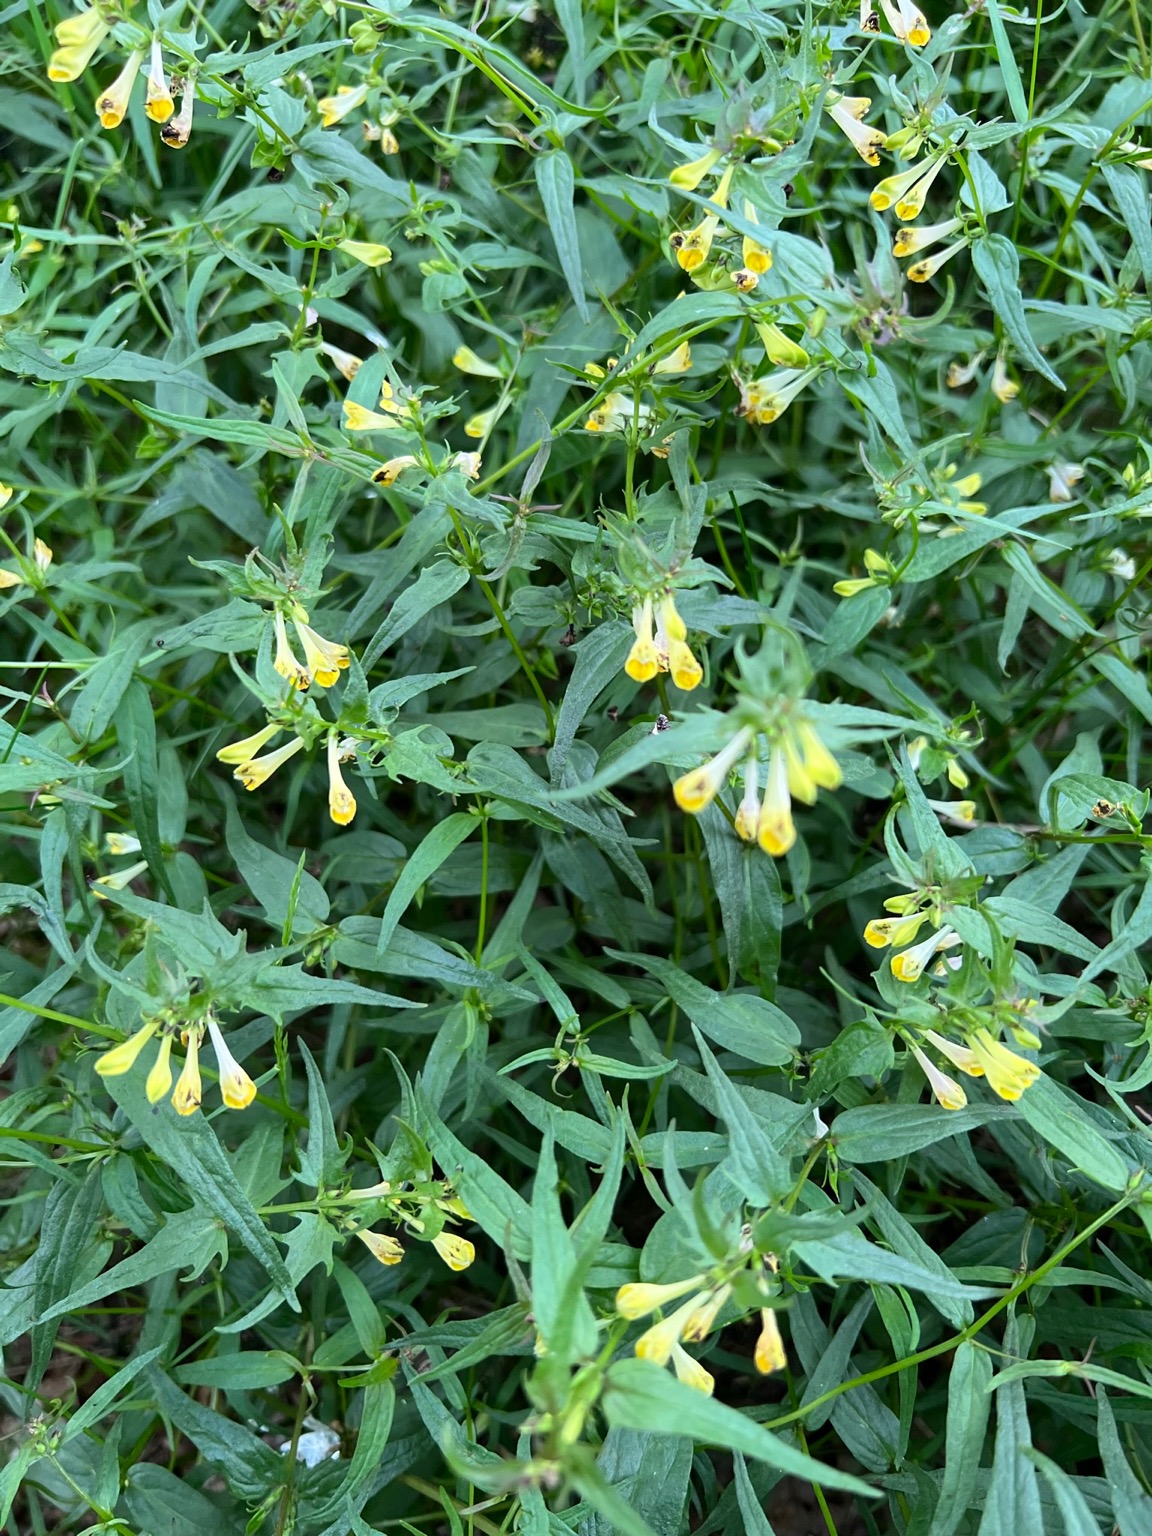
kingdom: Plantae
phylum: Tracheophyta
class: Magnoliopsida
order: Lamiales
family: Orobanchaceae
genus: Melampyrum
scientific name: Melampyrum pratense
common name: Almindelig kohvede
